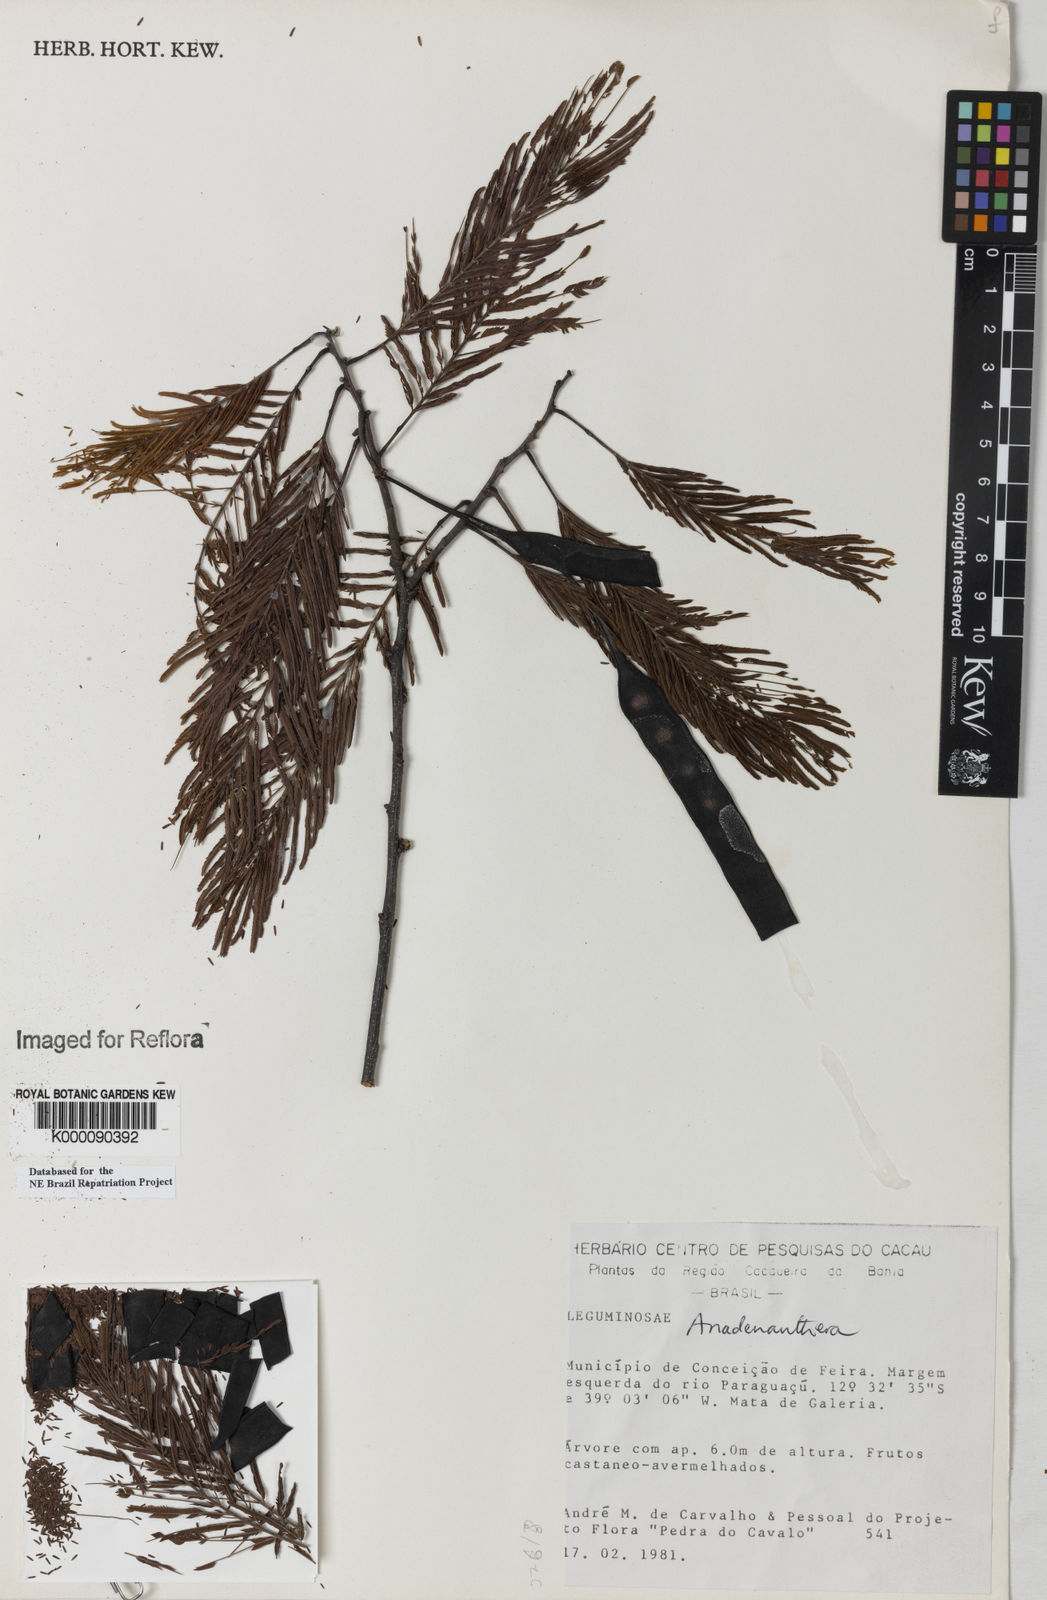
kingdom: Plantae
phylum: Tracheophyta
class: Magnoliopsida
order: Fabales
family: Fabaceae
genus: Anadenanthera
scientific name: Anadenanthera
